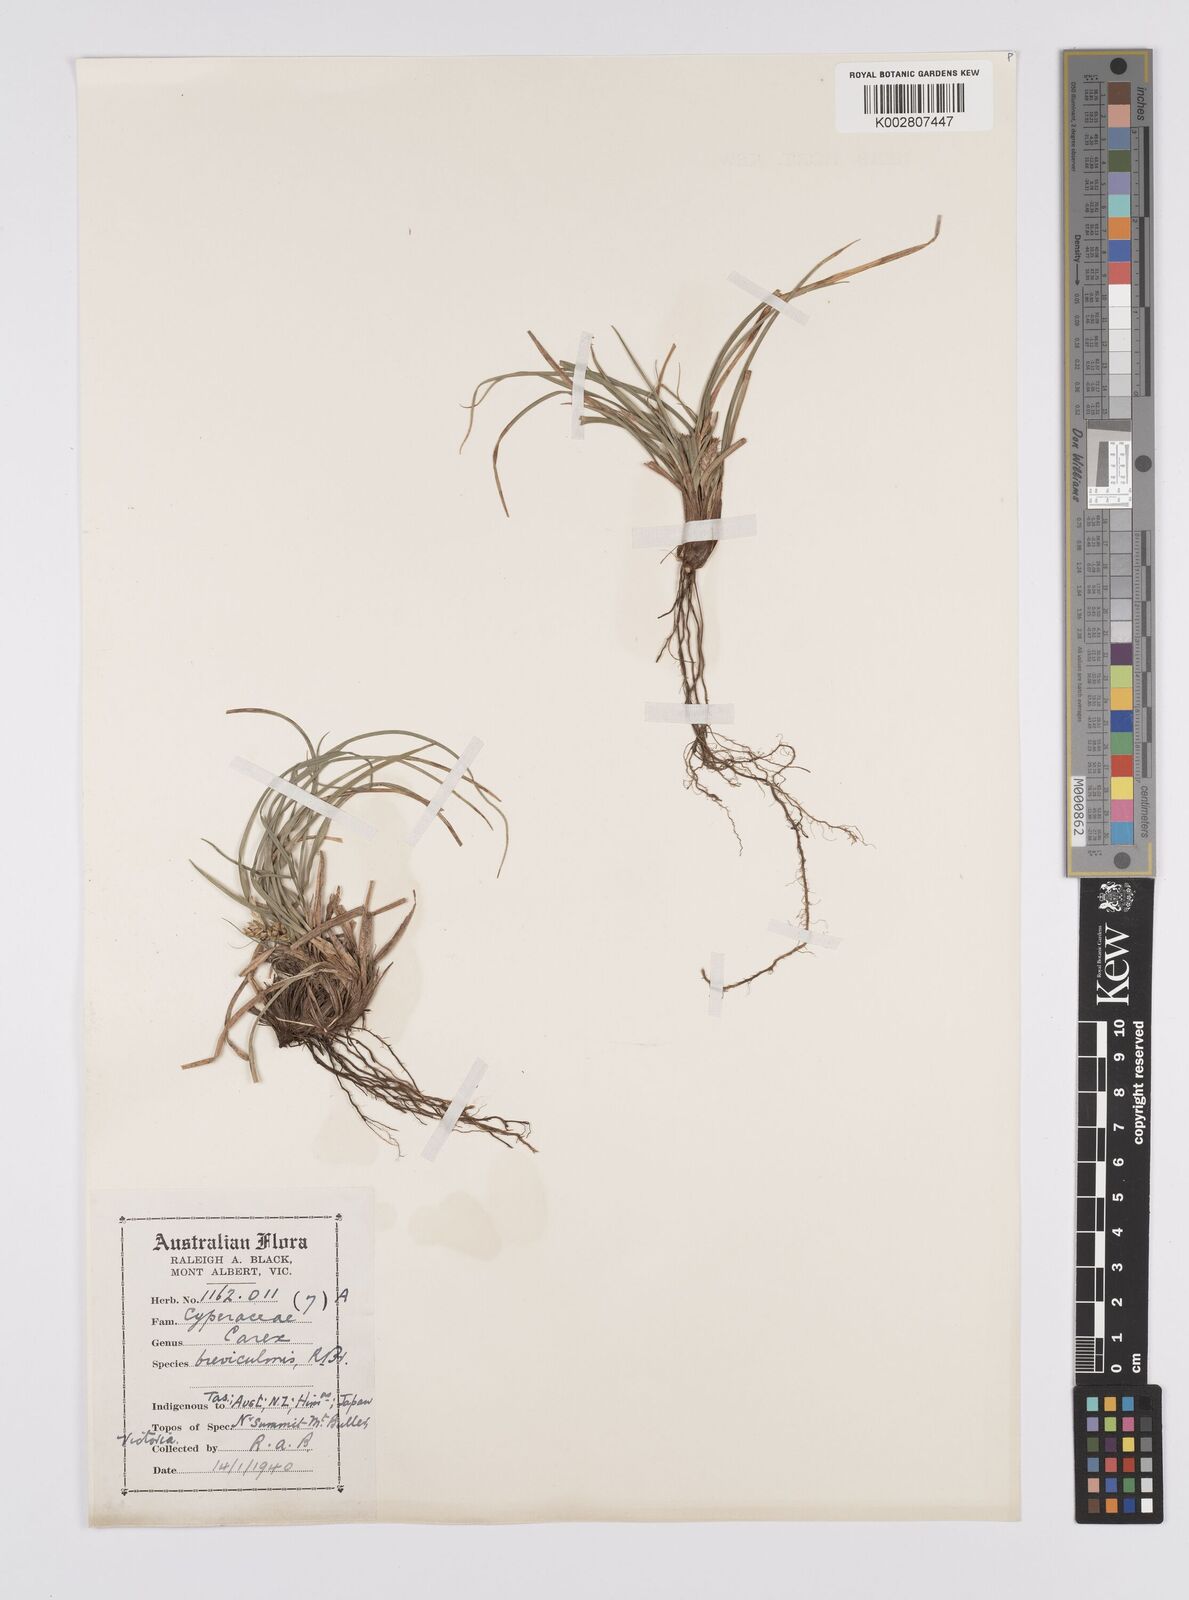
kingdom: Plantae
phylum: Tracheophyta
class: Liliopsida
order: Poales
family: Cyperaceae
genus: Carex
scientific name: Carex breviculmis
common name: Asian shortstem sedge
